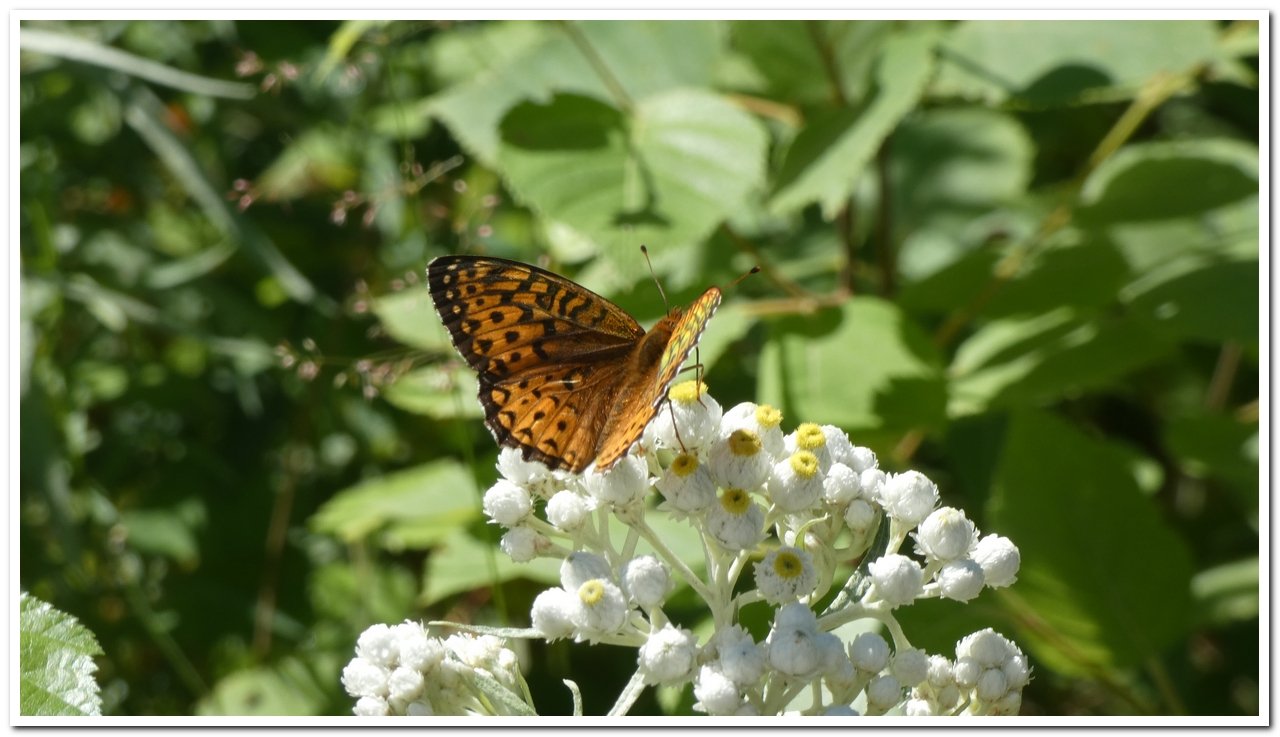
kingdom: Animalia
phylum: Arthropoda
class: Insecta
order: Lepidoptera
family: Nymphalidae
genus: Speyeria
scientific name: Speyeria atlantis
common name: Atlantis Fritillary
